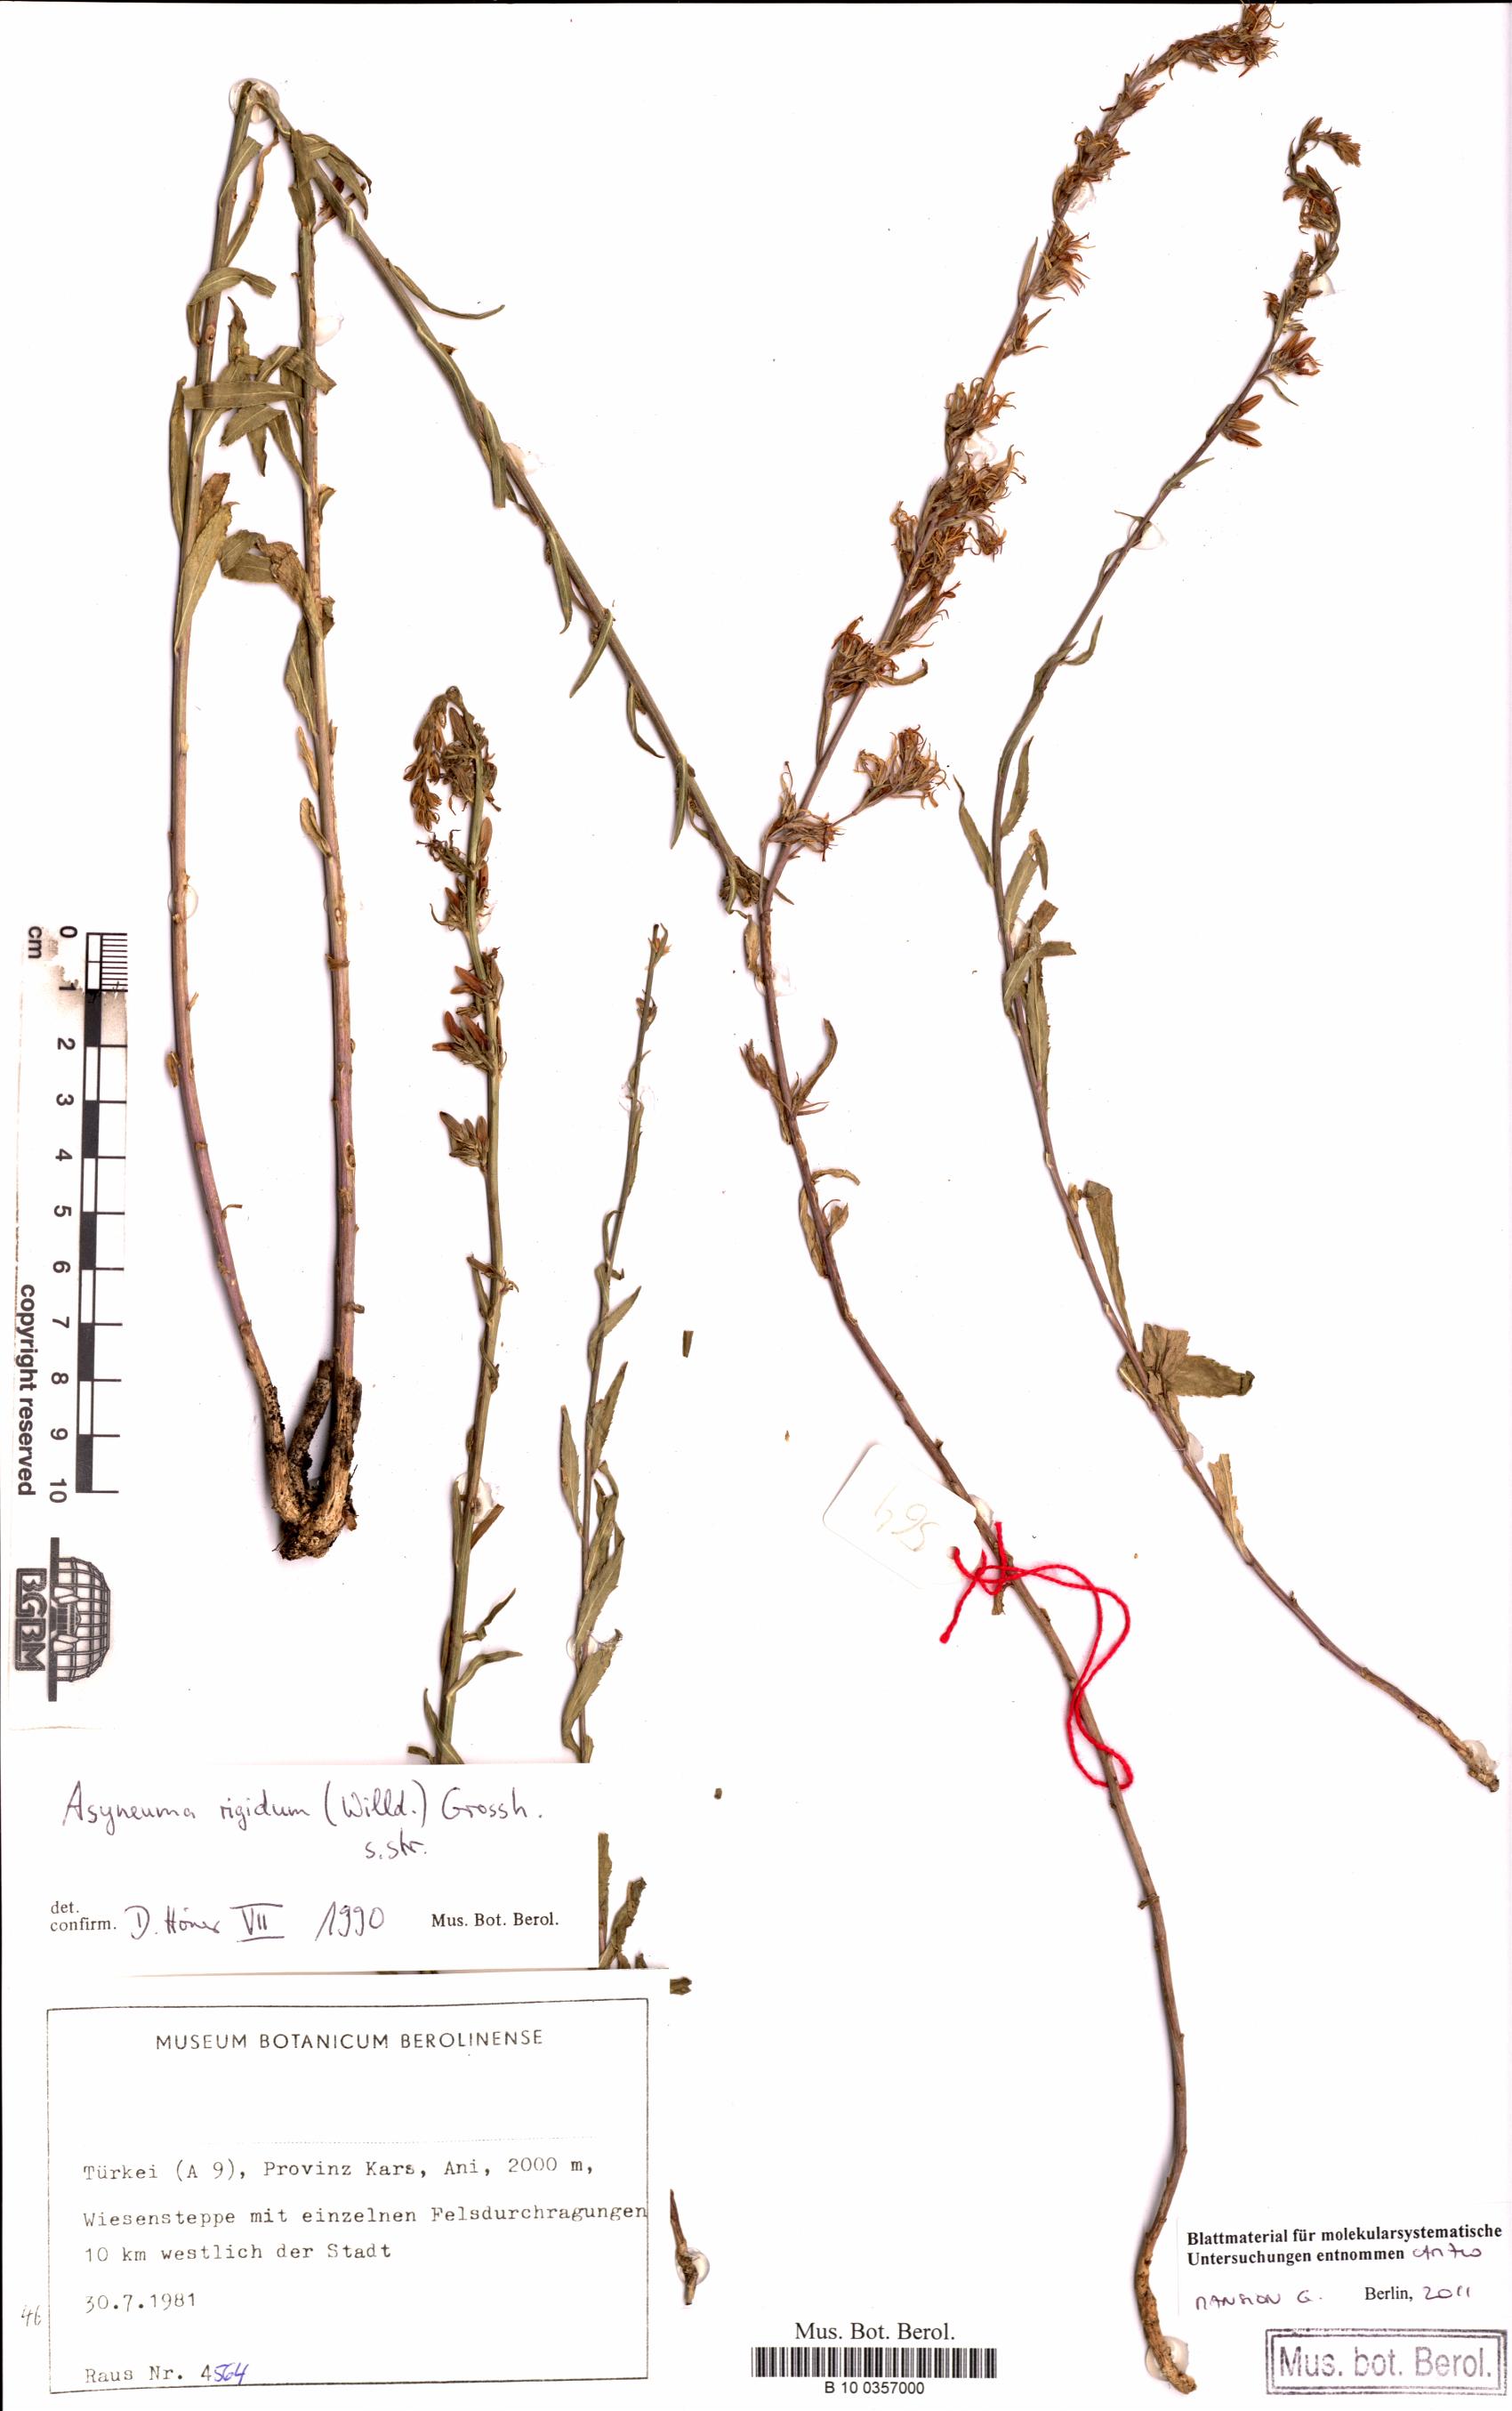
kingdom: Plantae
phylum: Tracheophyta
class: Magnoliopsida
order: Asterales
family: Campanulaceae
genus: Asyneuma
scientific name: Asyneuma rigidum
